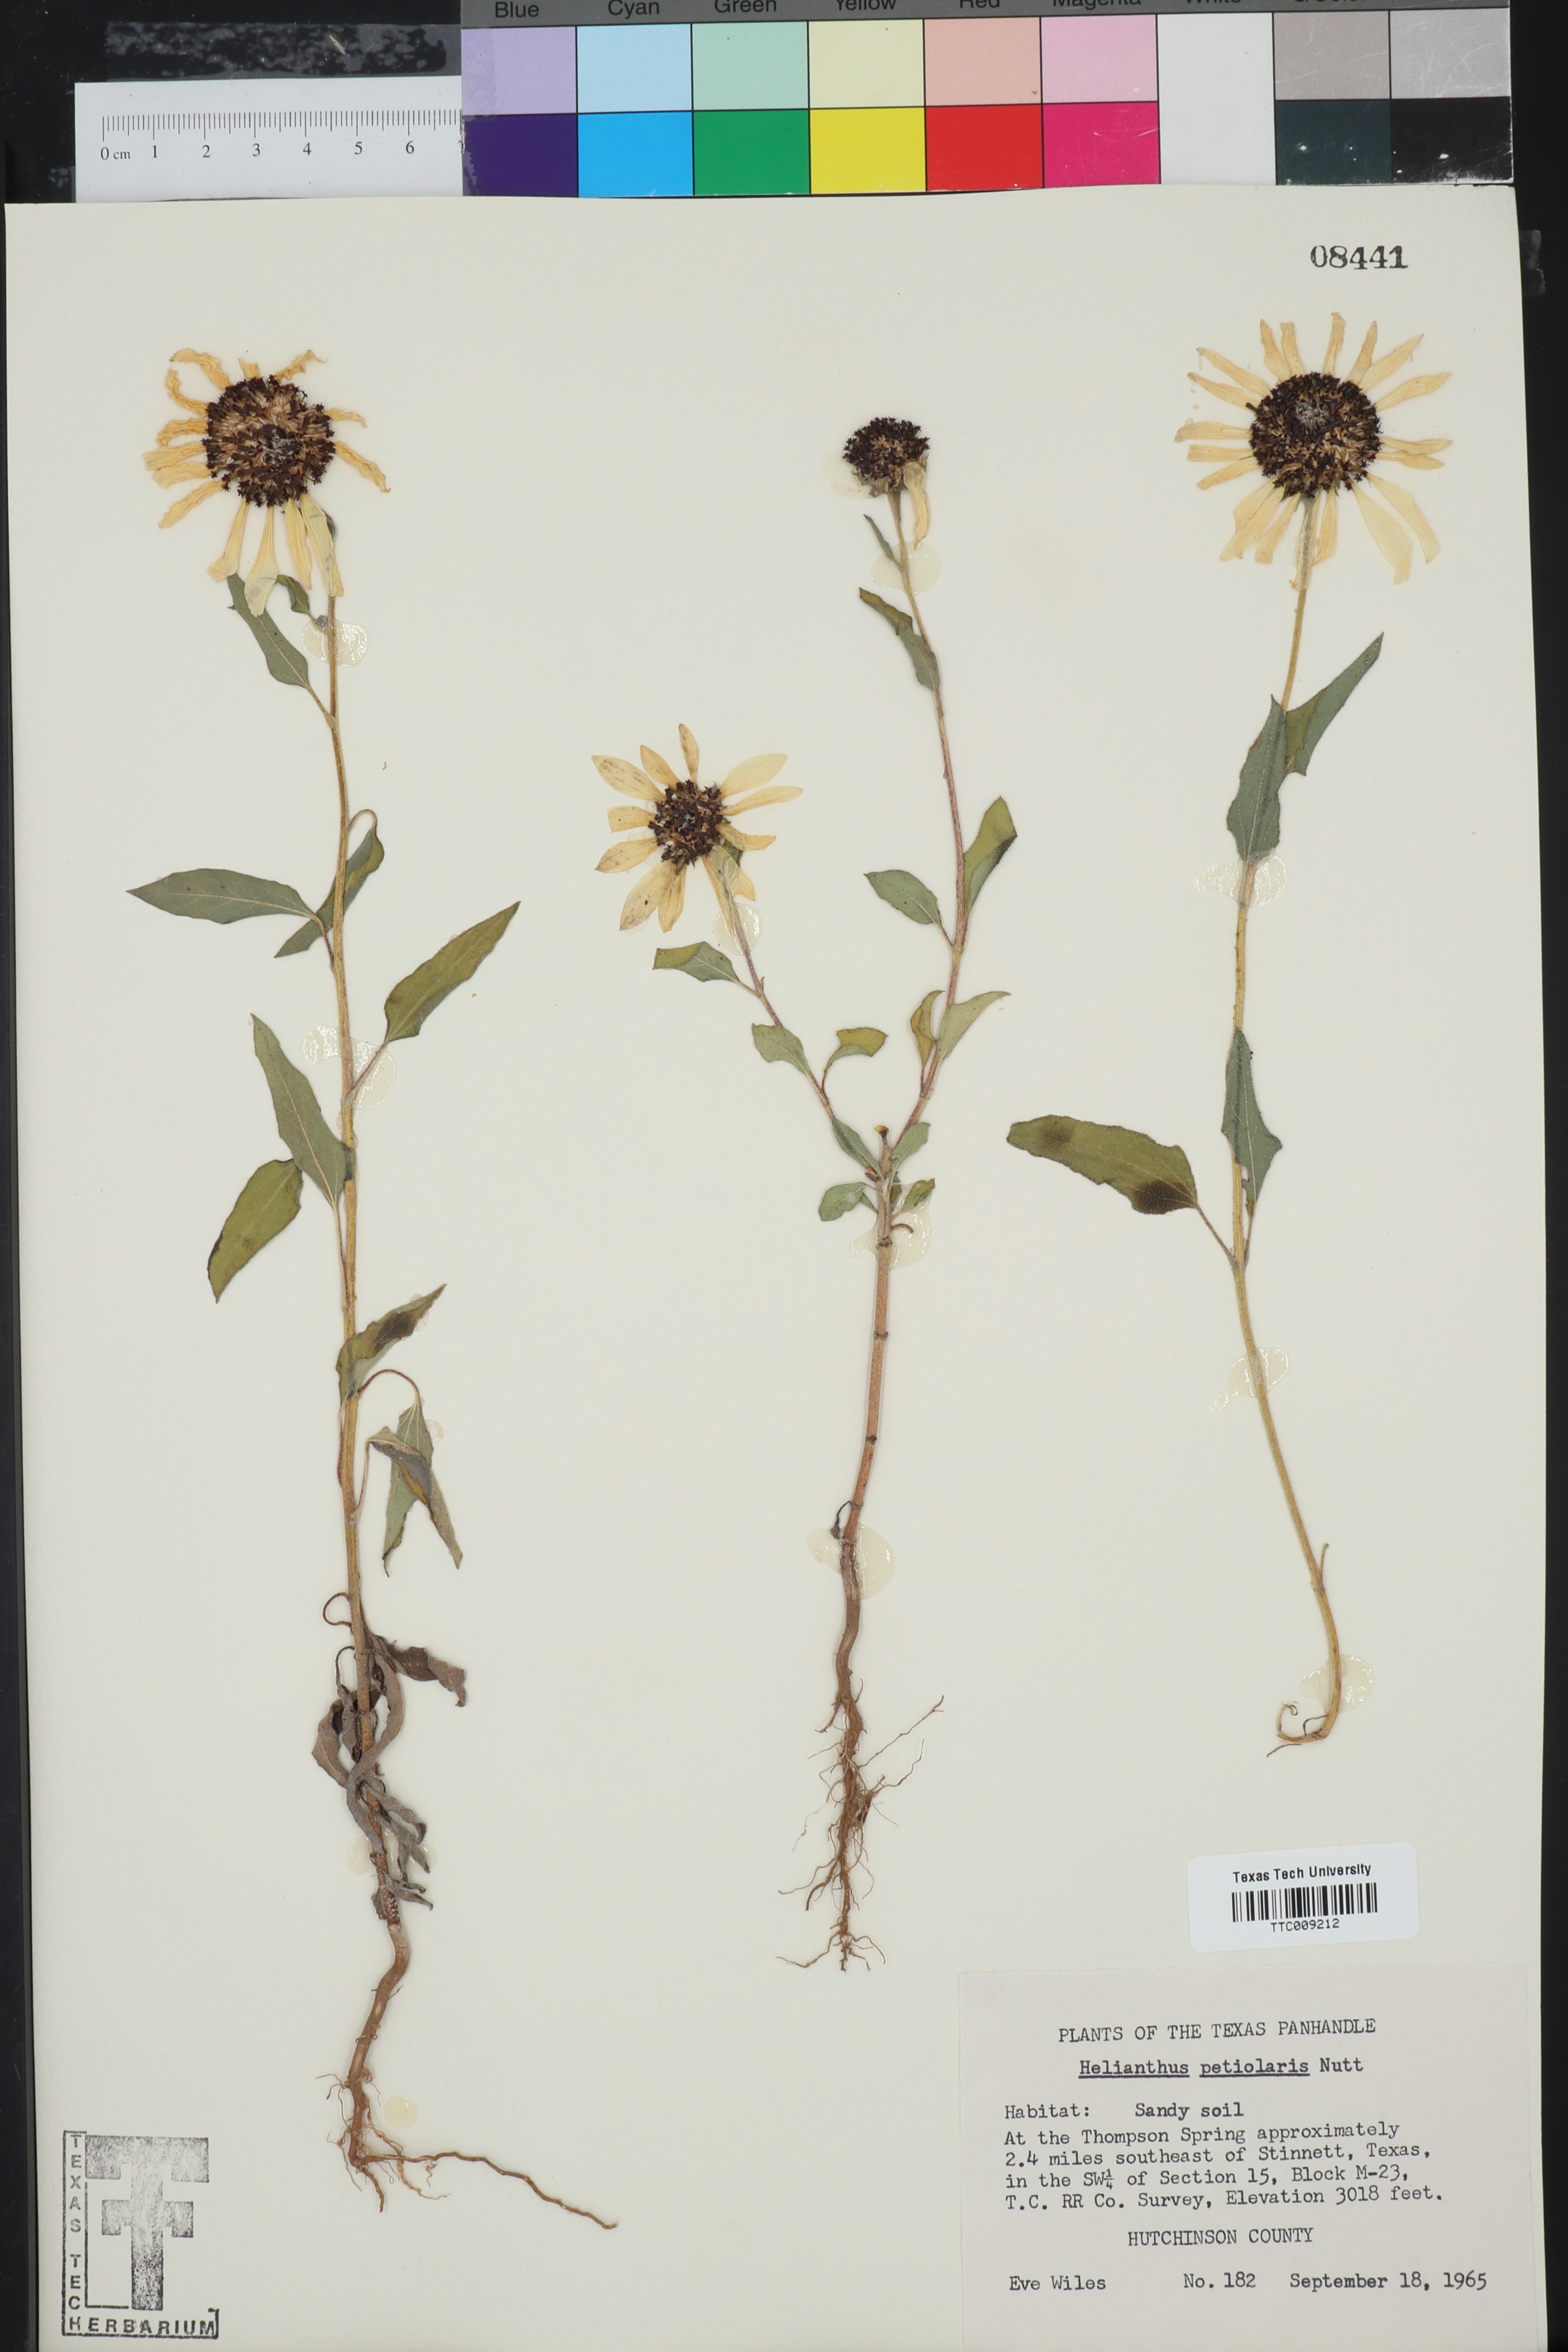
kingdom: Plantae
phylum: Tracheophyta
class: Magnoliopsida
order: Asterales
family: Asteraceae
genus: Helianthus
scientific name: Helianthus petiolaris
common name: Lesser sunflower
